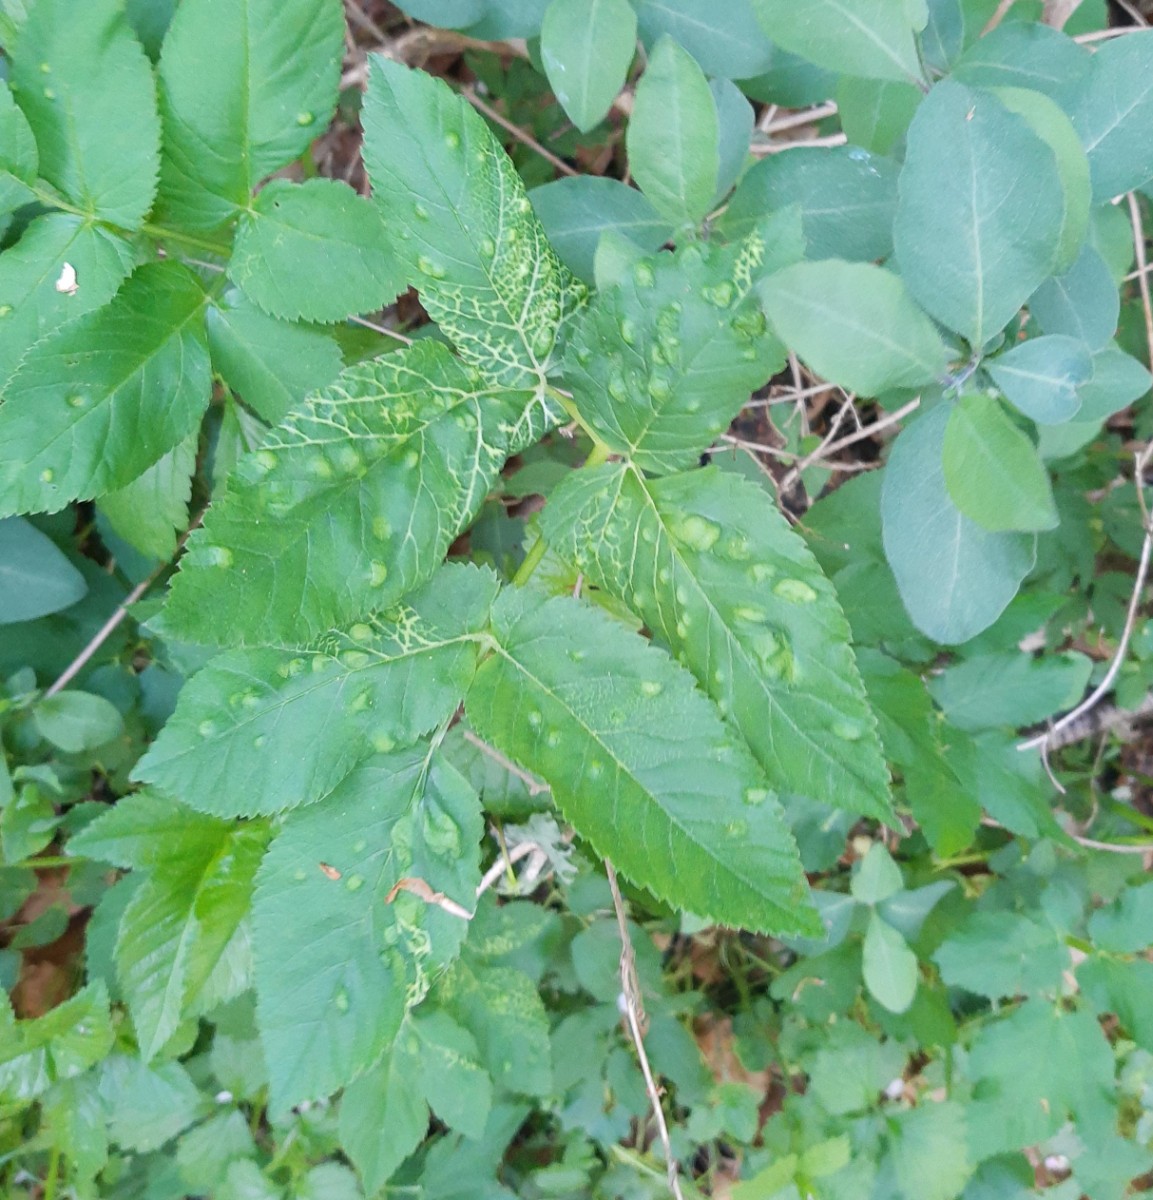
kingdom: Fungi
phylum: Ascomycota
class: Taphrinomycetes
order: Taphrinales
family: Taphrinaceae
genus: Protomyces
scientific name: Protomyces macrosporus
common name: skvalderkål-vablesæk
